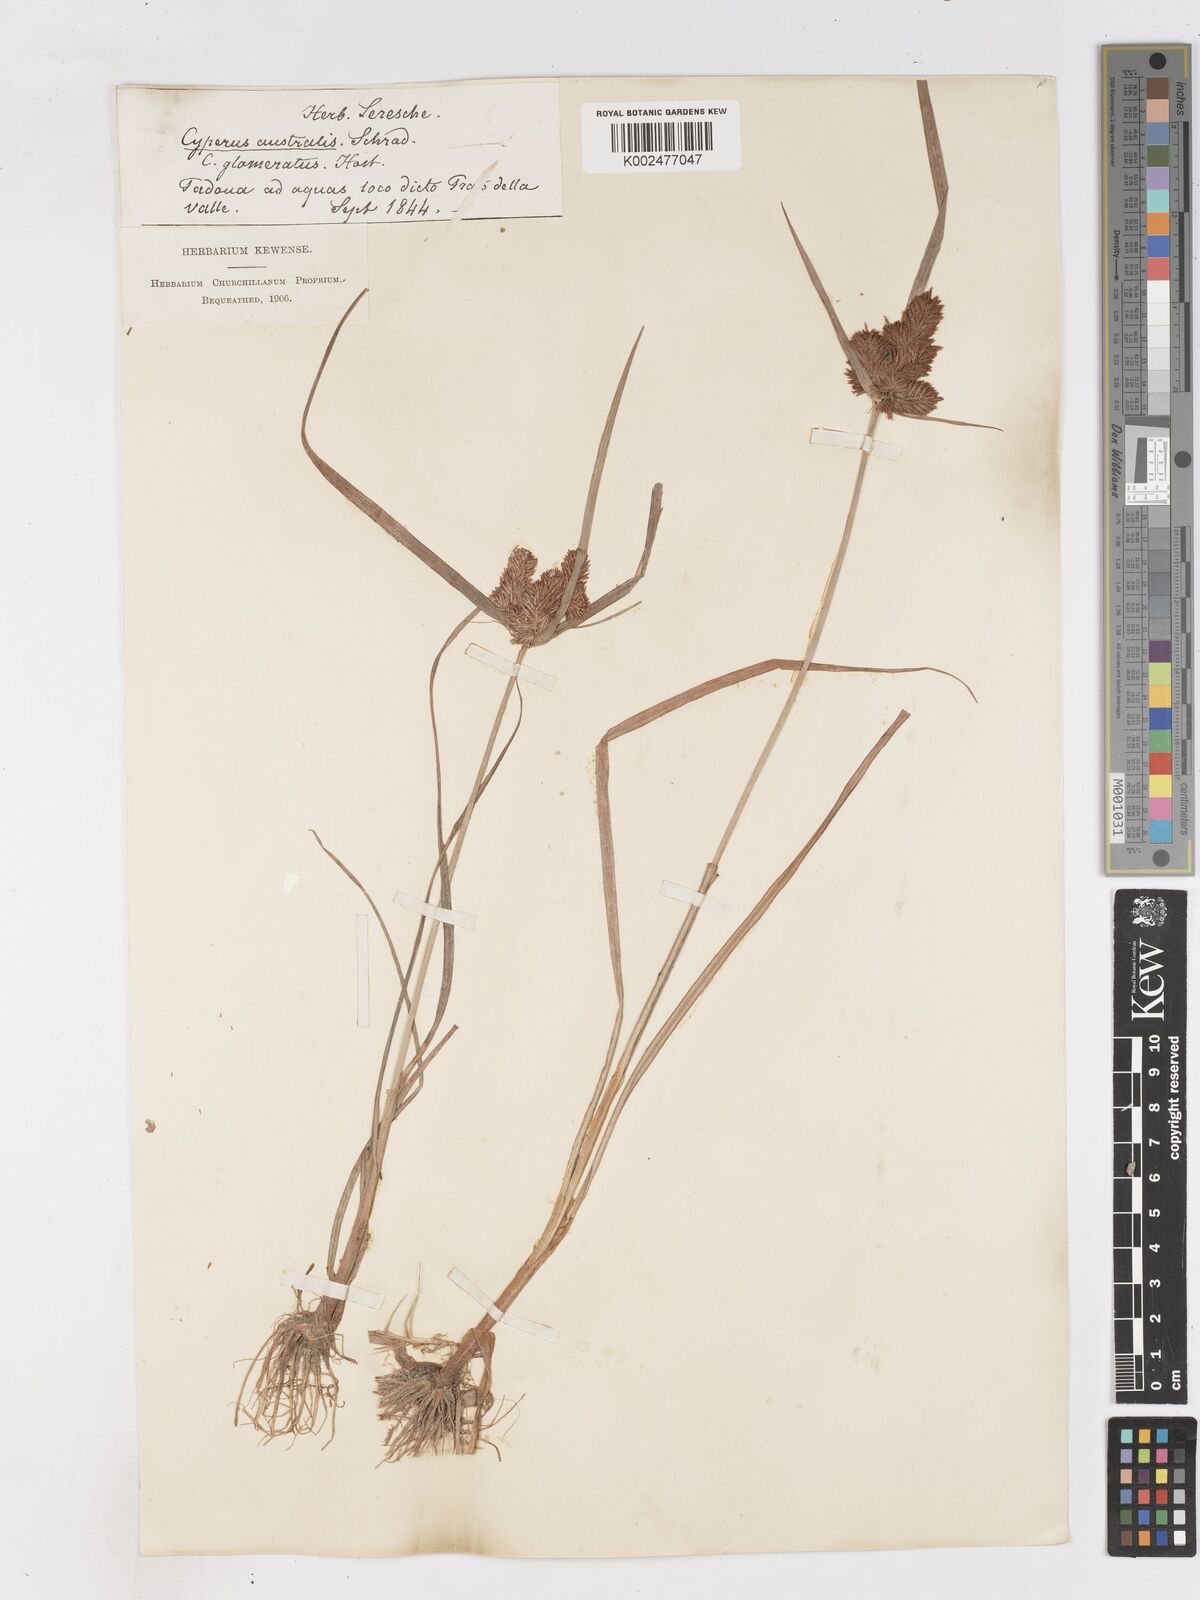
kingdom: Plantae
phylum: Tracheophyta
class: Liliopsida
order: Poales
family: Cyperaceae
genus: Cyperus
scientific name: Cyperus glomeratus
